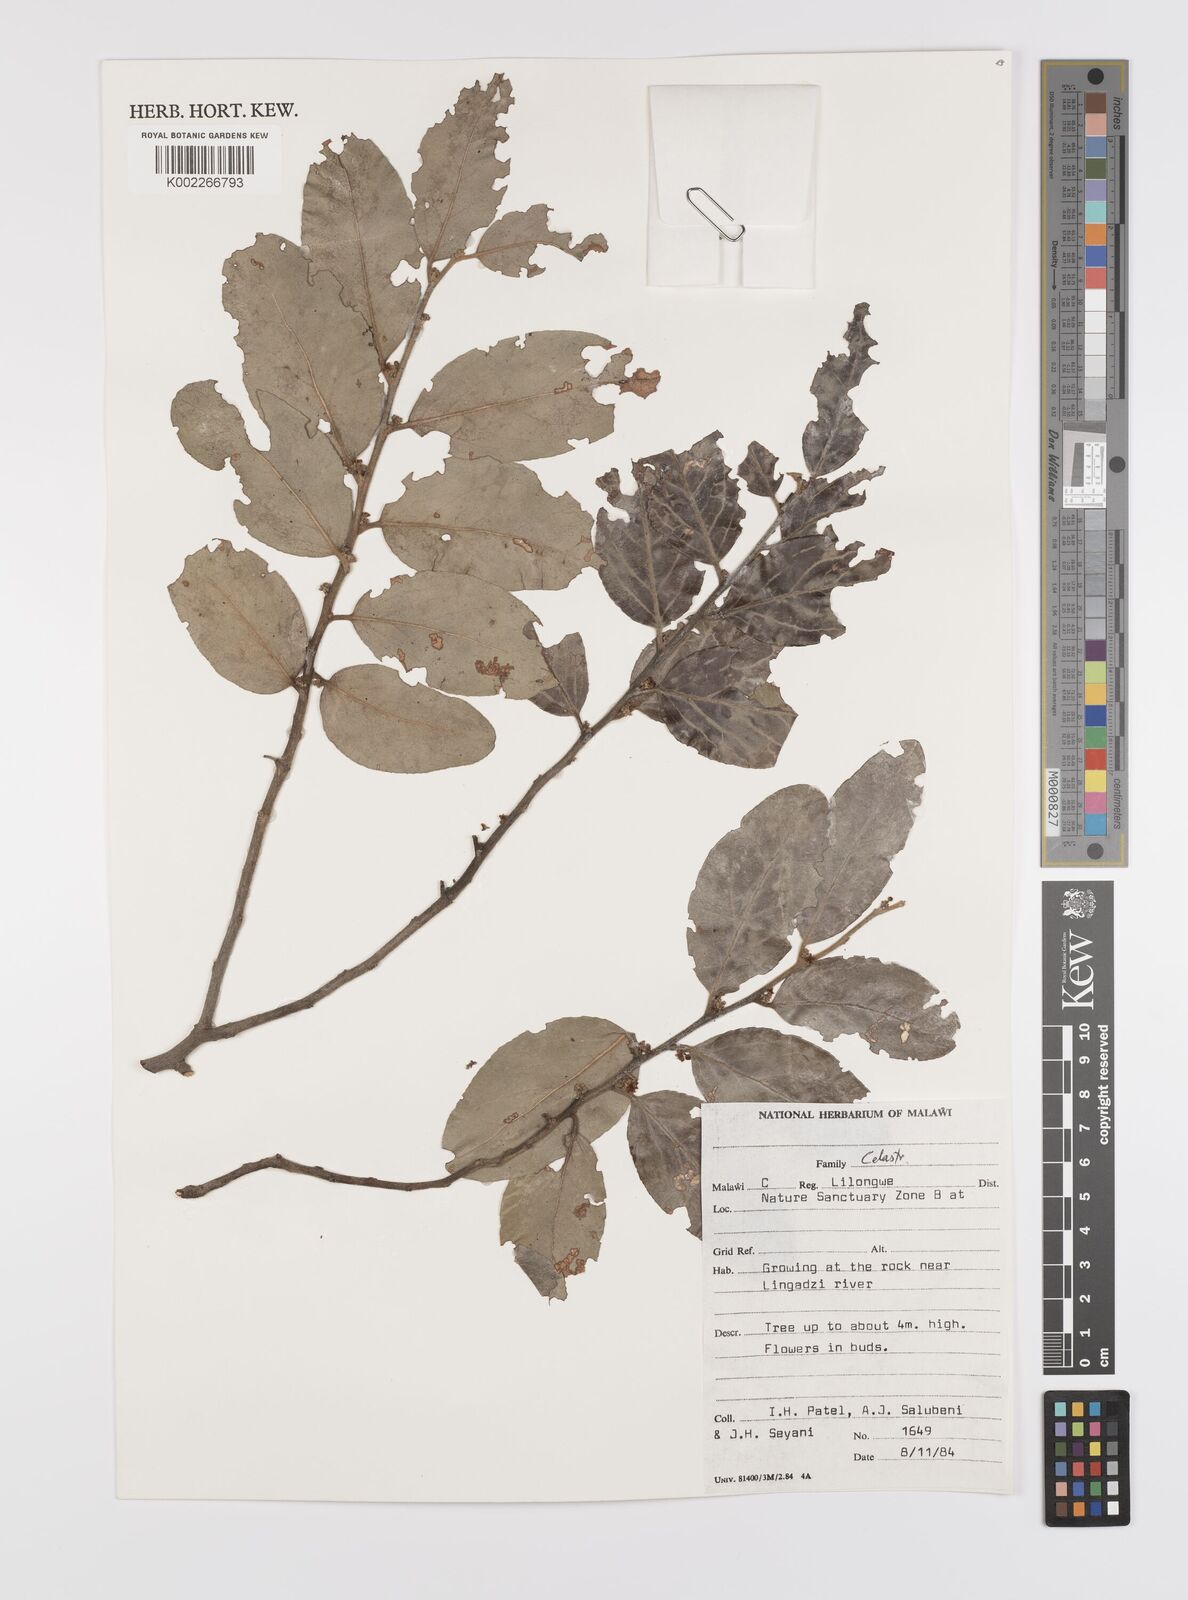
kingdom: Plantae
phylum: Tracheophyta
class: Magnoliopsida
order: Celastrales
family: Celastraceae
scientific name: Celastraceae
